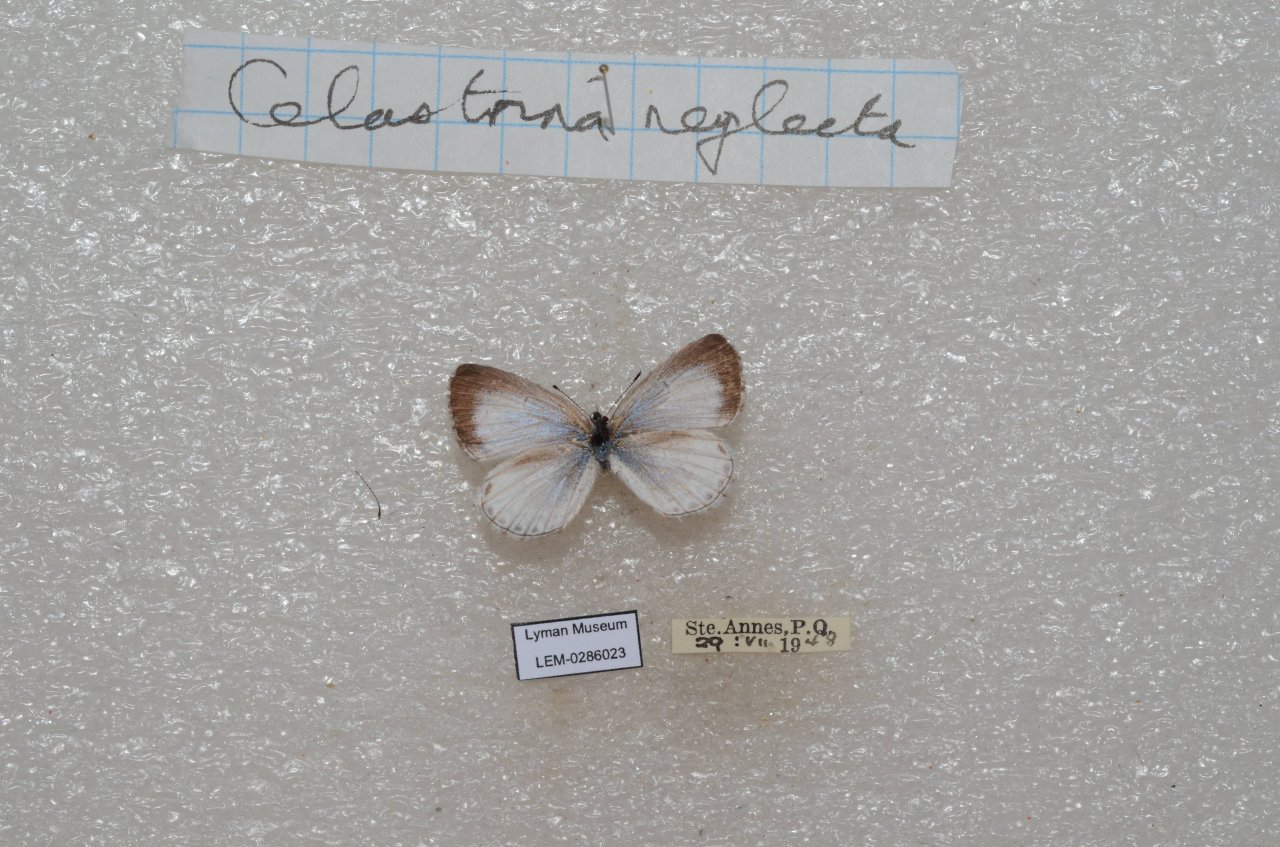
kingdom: Animalia
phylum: Arthropoda
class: Insecta
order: Lepidoptera
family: Lycaenidae
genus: Celastrina
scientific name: Celastrina lucia
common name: Northern Spring Azure
